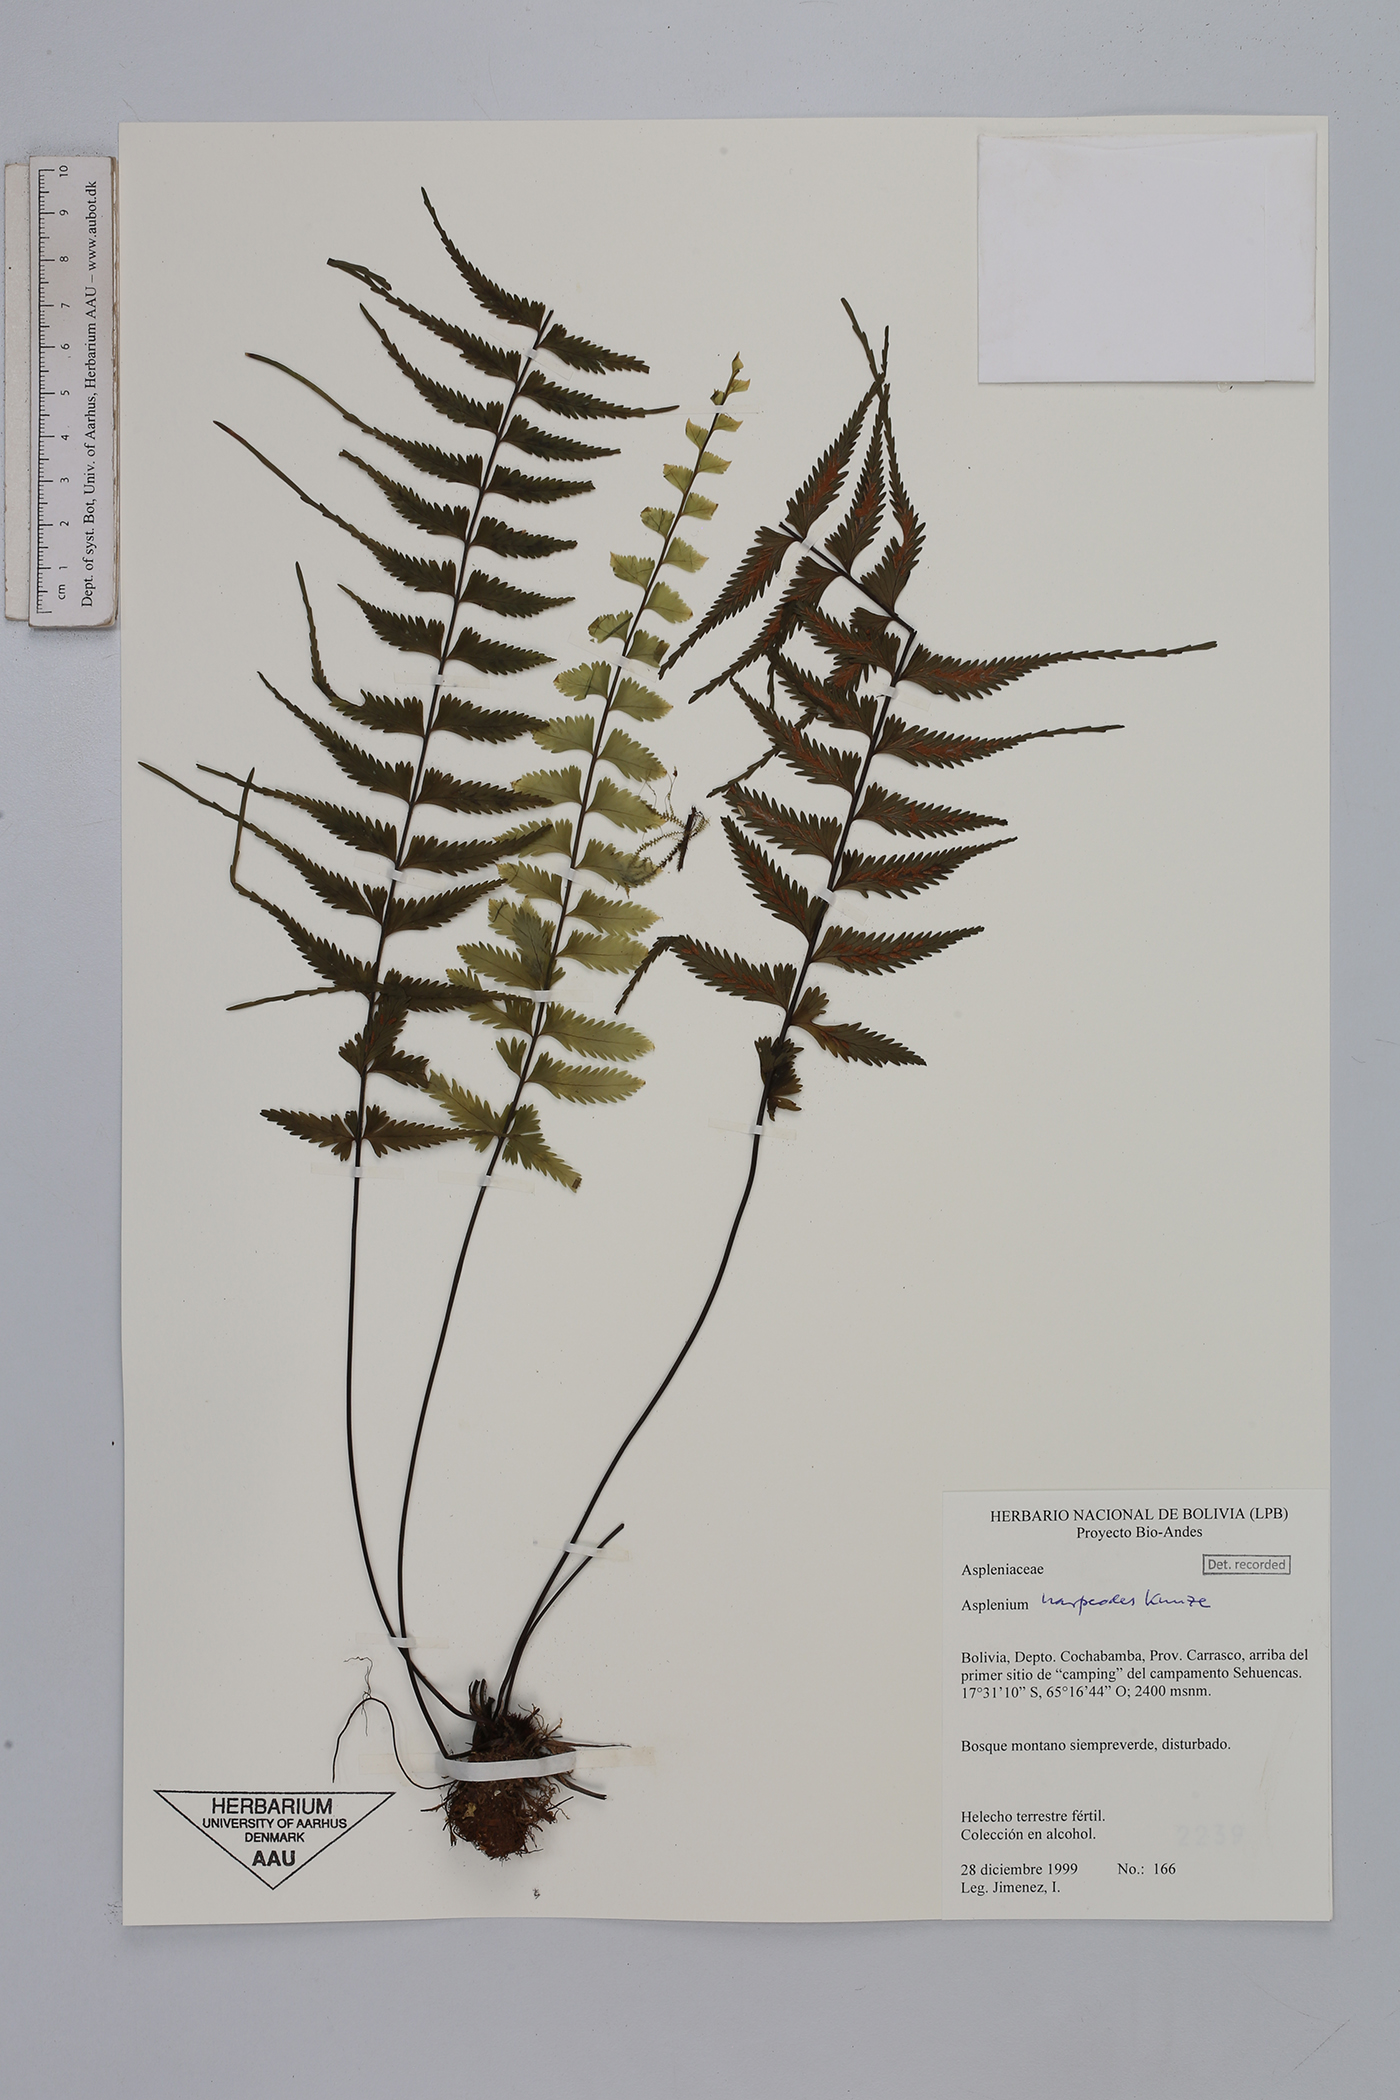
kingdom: Plantae
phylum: Tracheophyta
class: Polypodiopsida
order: Polypodiales
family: Aspleniaceae
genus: Asplenium
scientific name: Asplenium harpeodes
